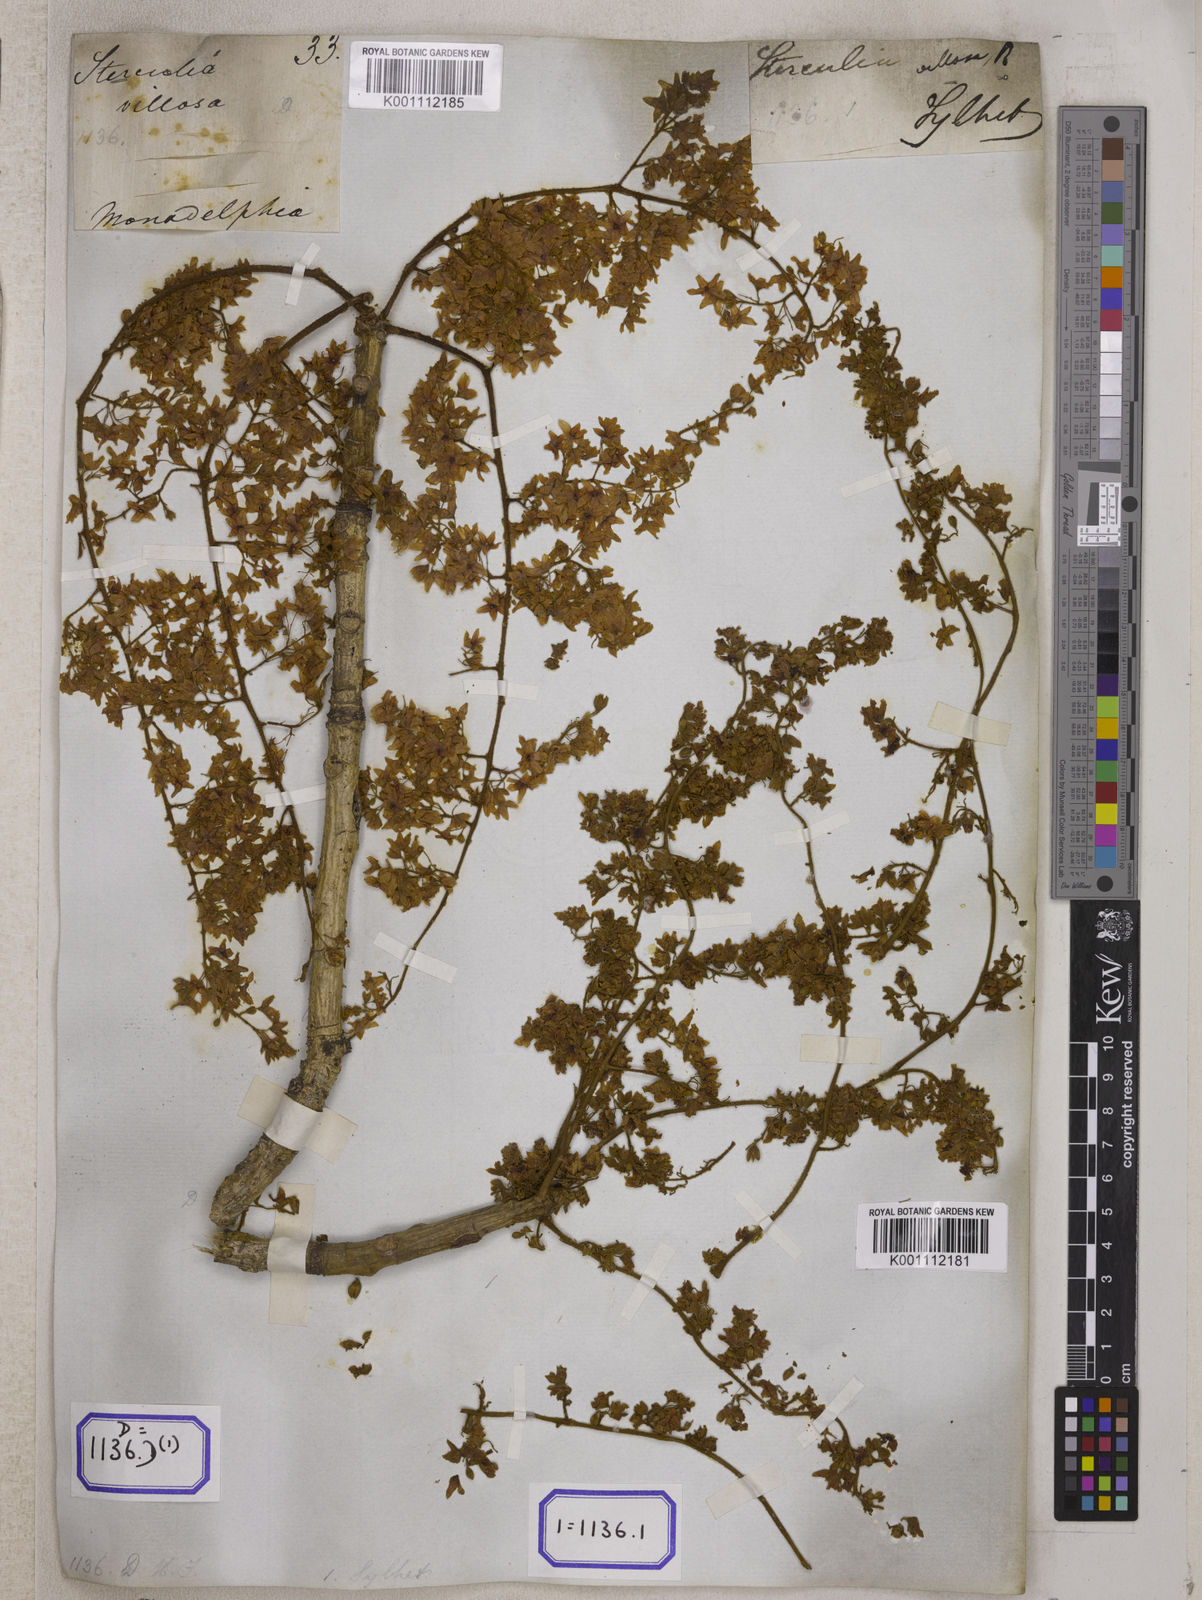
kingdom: Plantae
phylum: Tracheophyta
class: Magnoliopsida
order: Malvales
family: Malvaceae
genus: Sterculia
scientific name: Sterculia
